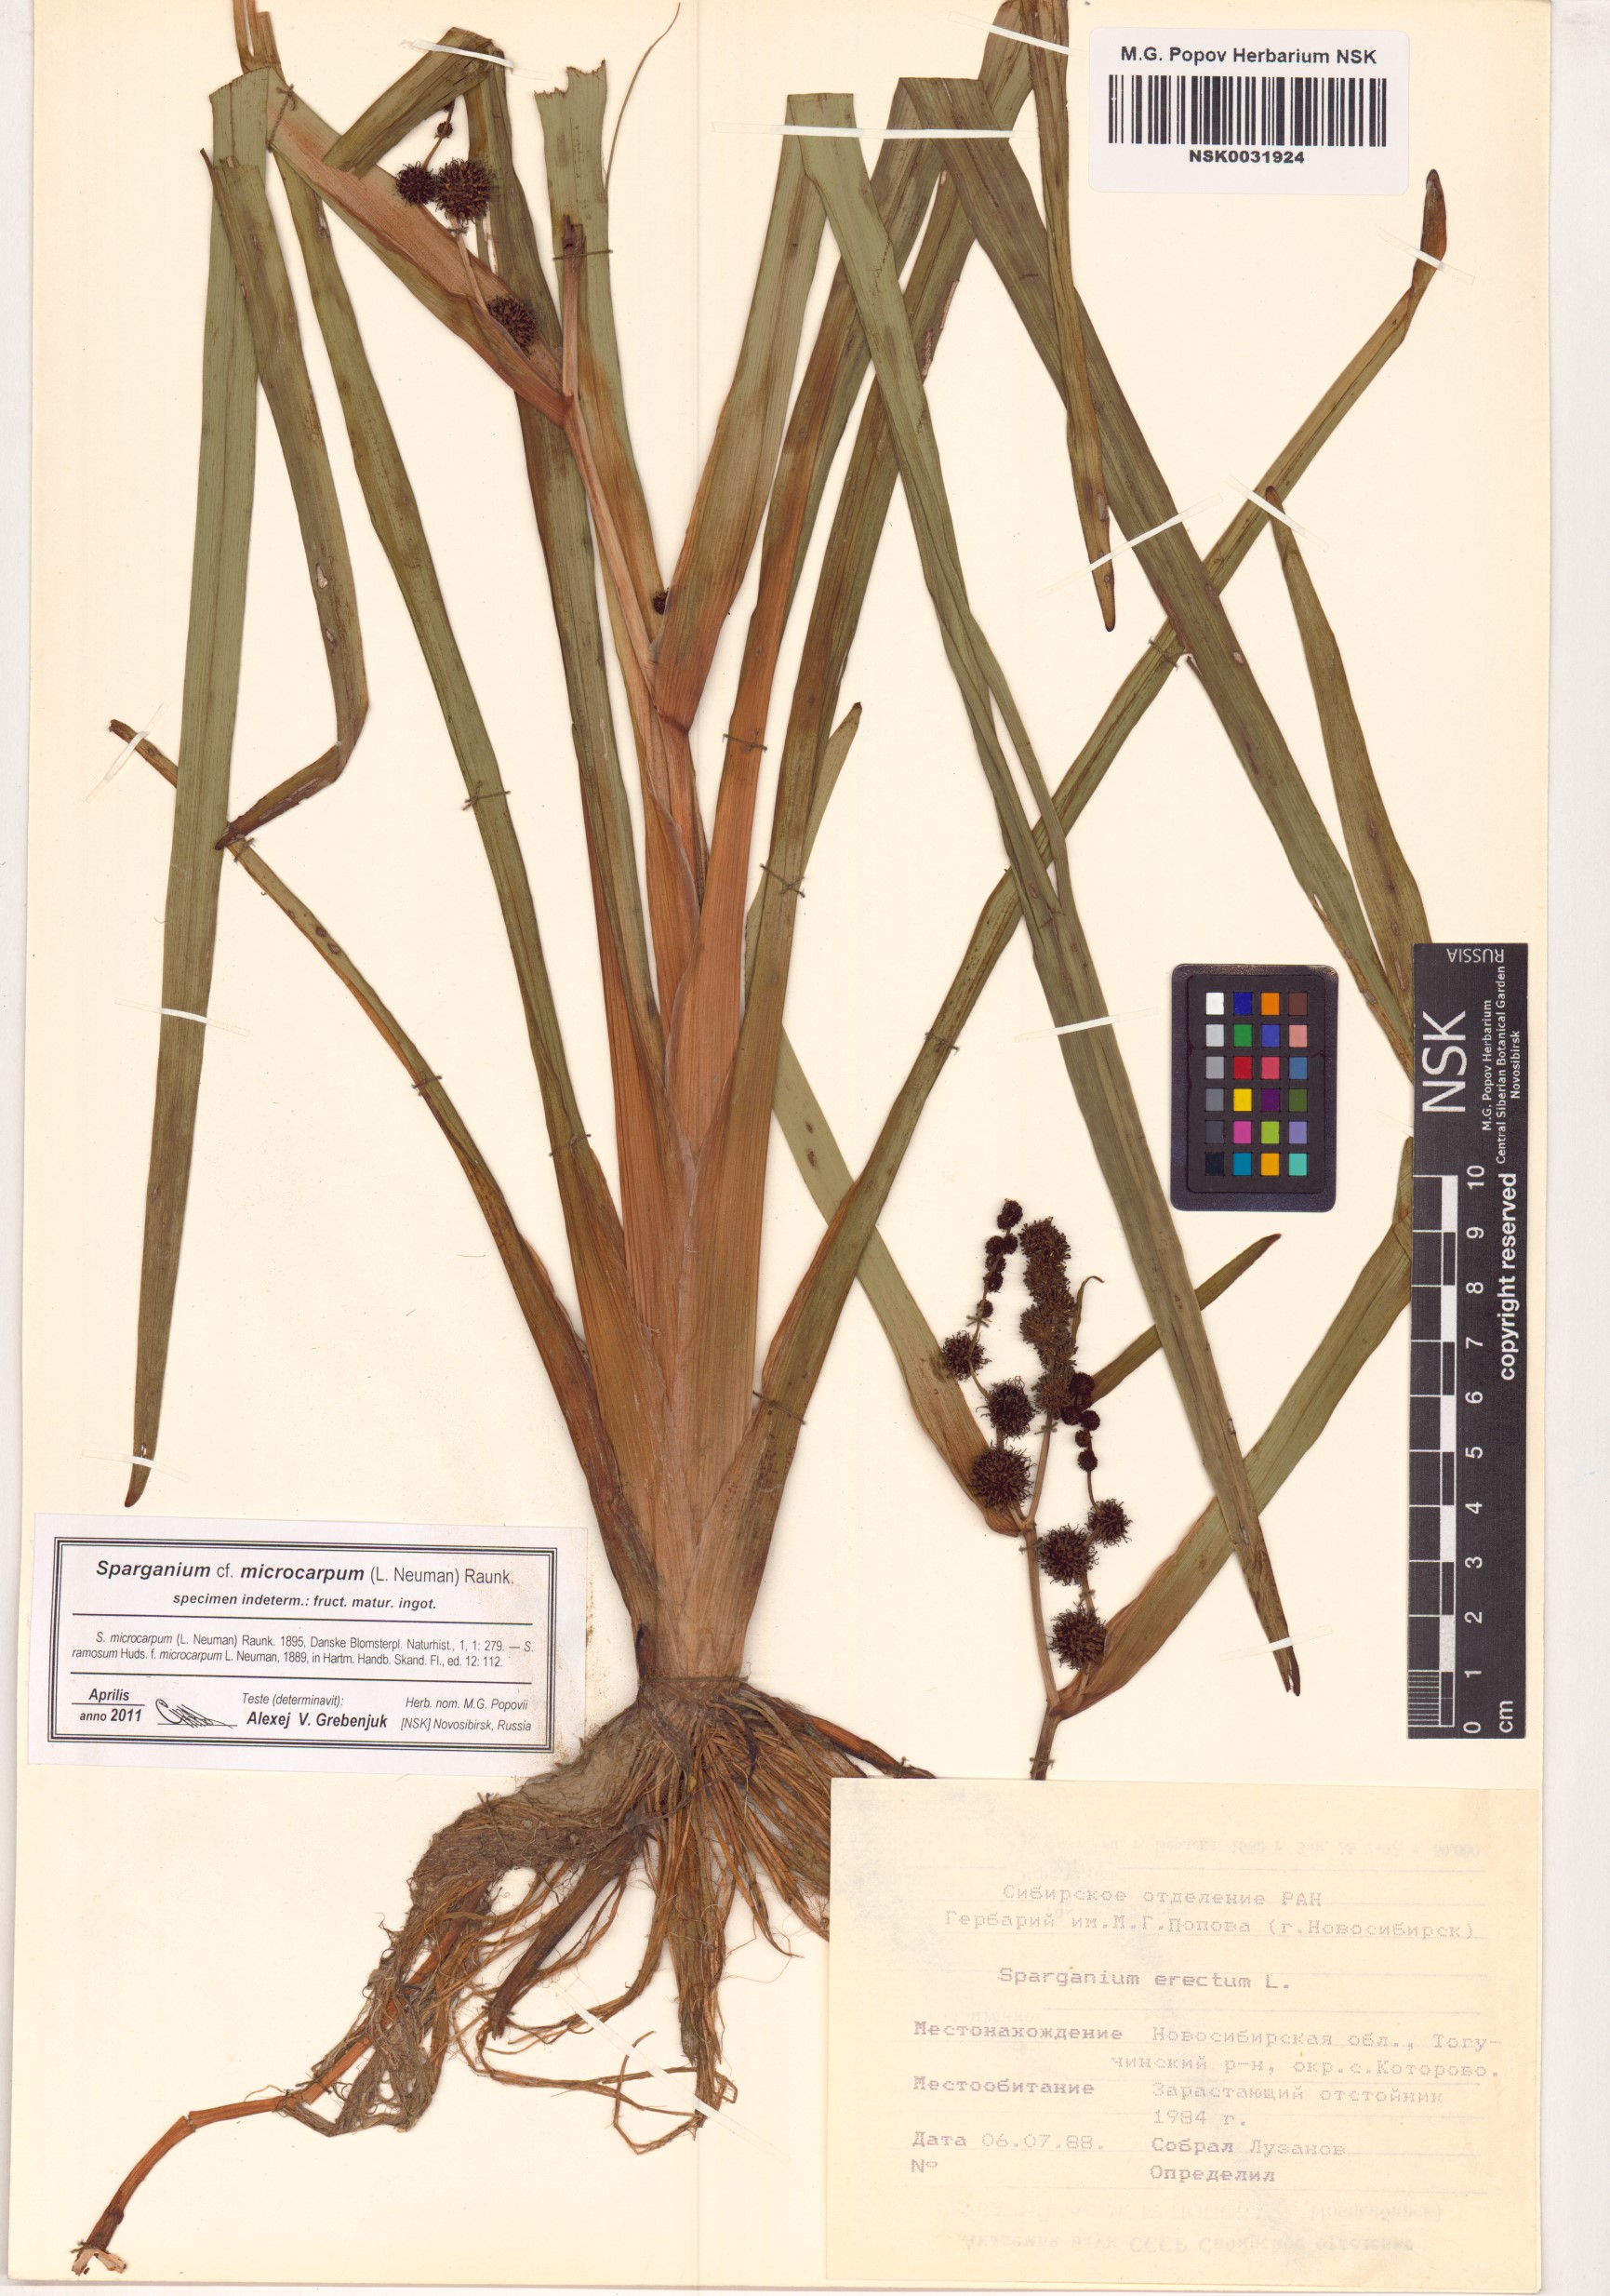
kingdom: Plantae
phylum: Tracheophyta
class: Liliopsida
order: Poales
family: Typhaceae
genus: Sparganium
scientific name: Sparganium erectum
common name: Branched bur-reed
